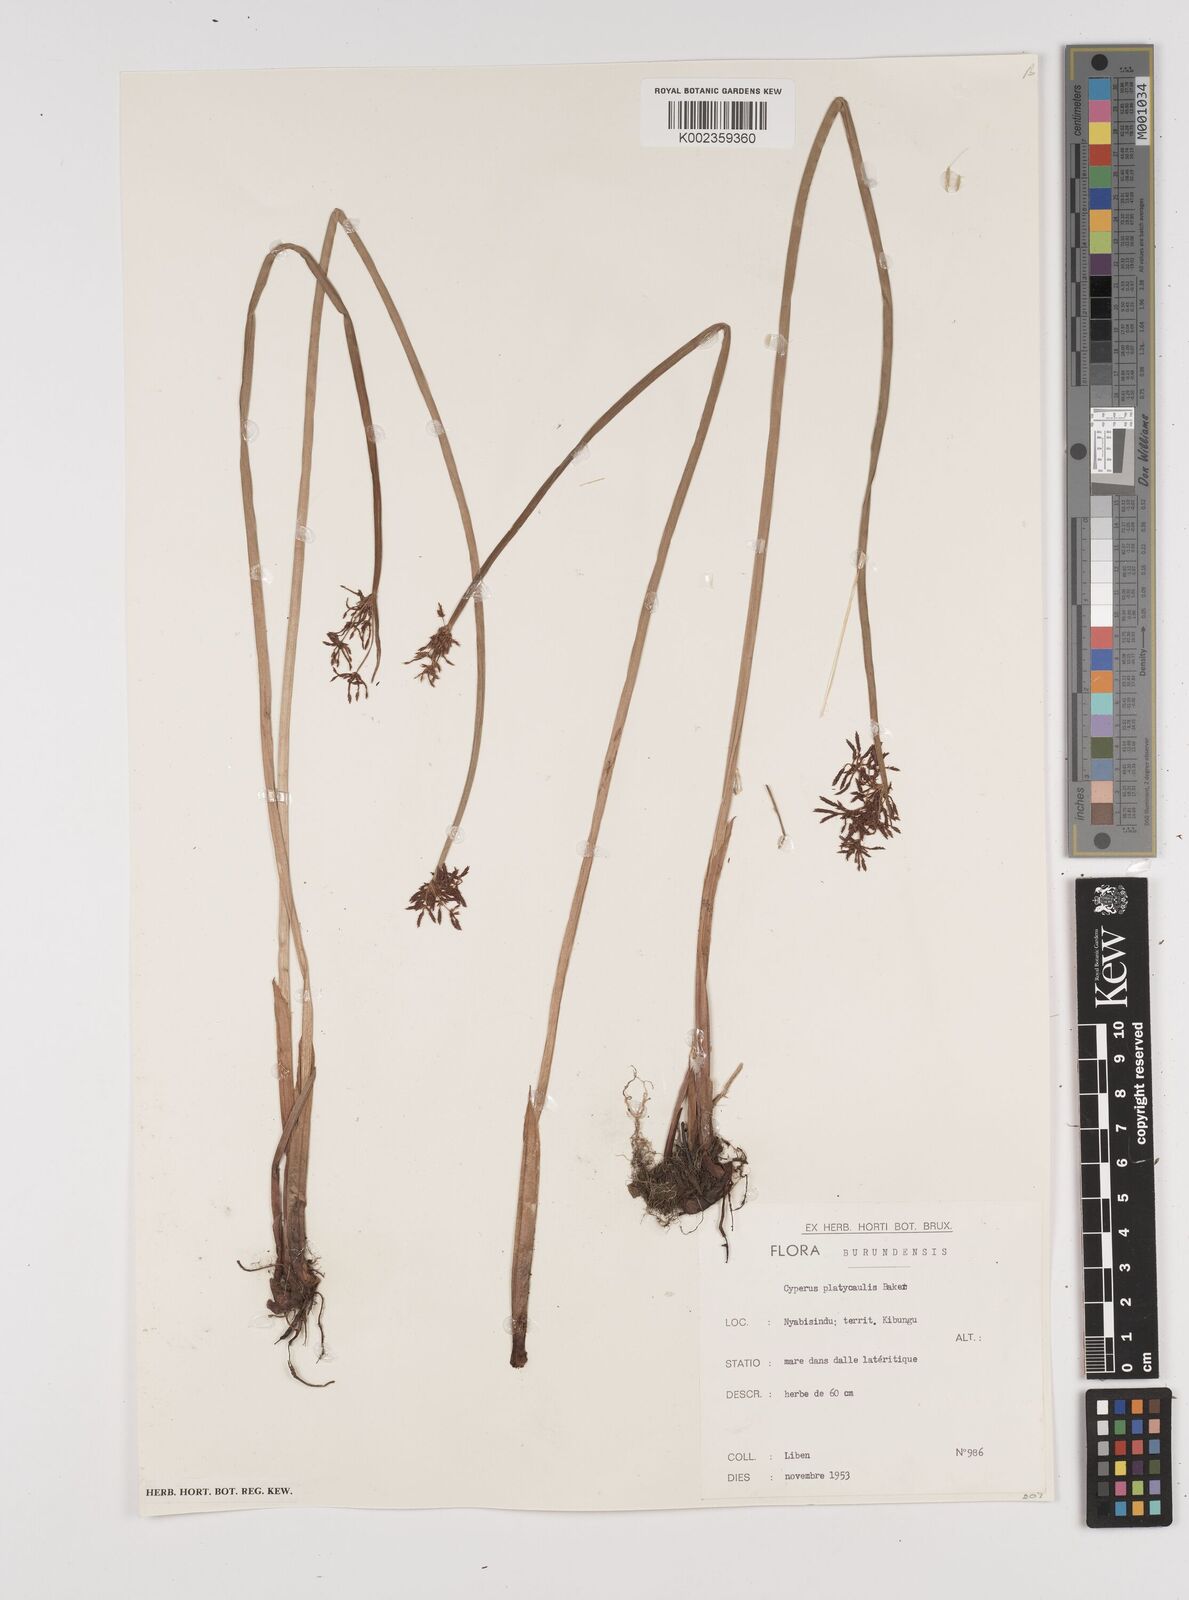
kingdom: Plantae
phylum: Tracheophyta
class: Liliopsida
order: Poales
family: Cyperaceae
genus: Cyperus
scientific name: Cyperus platycaulis
